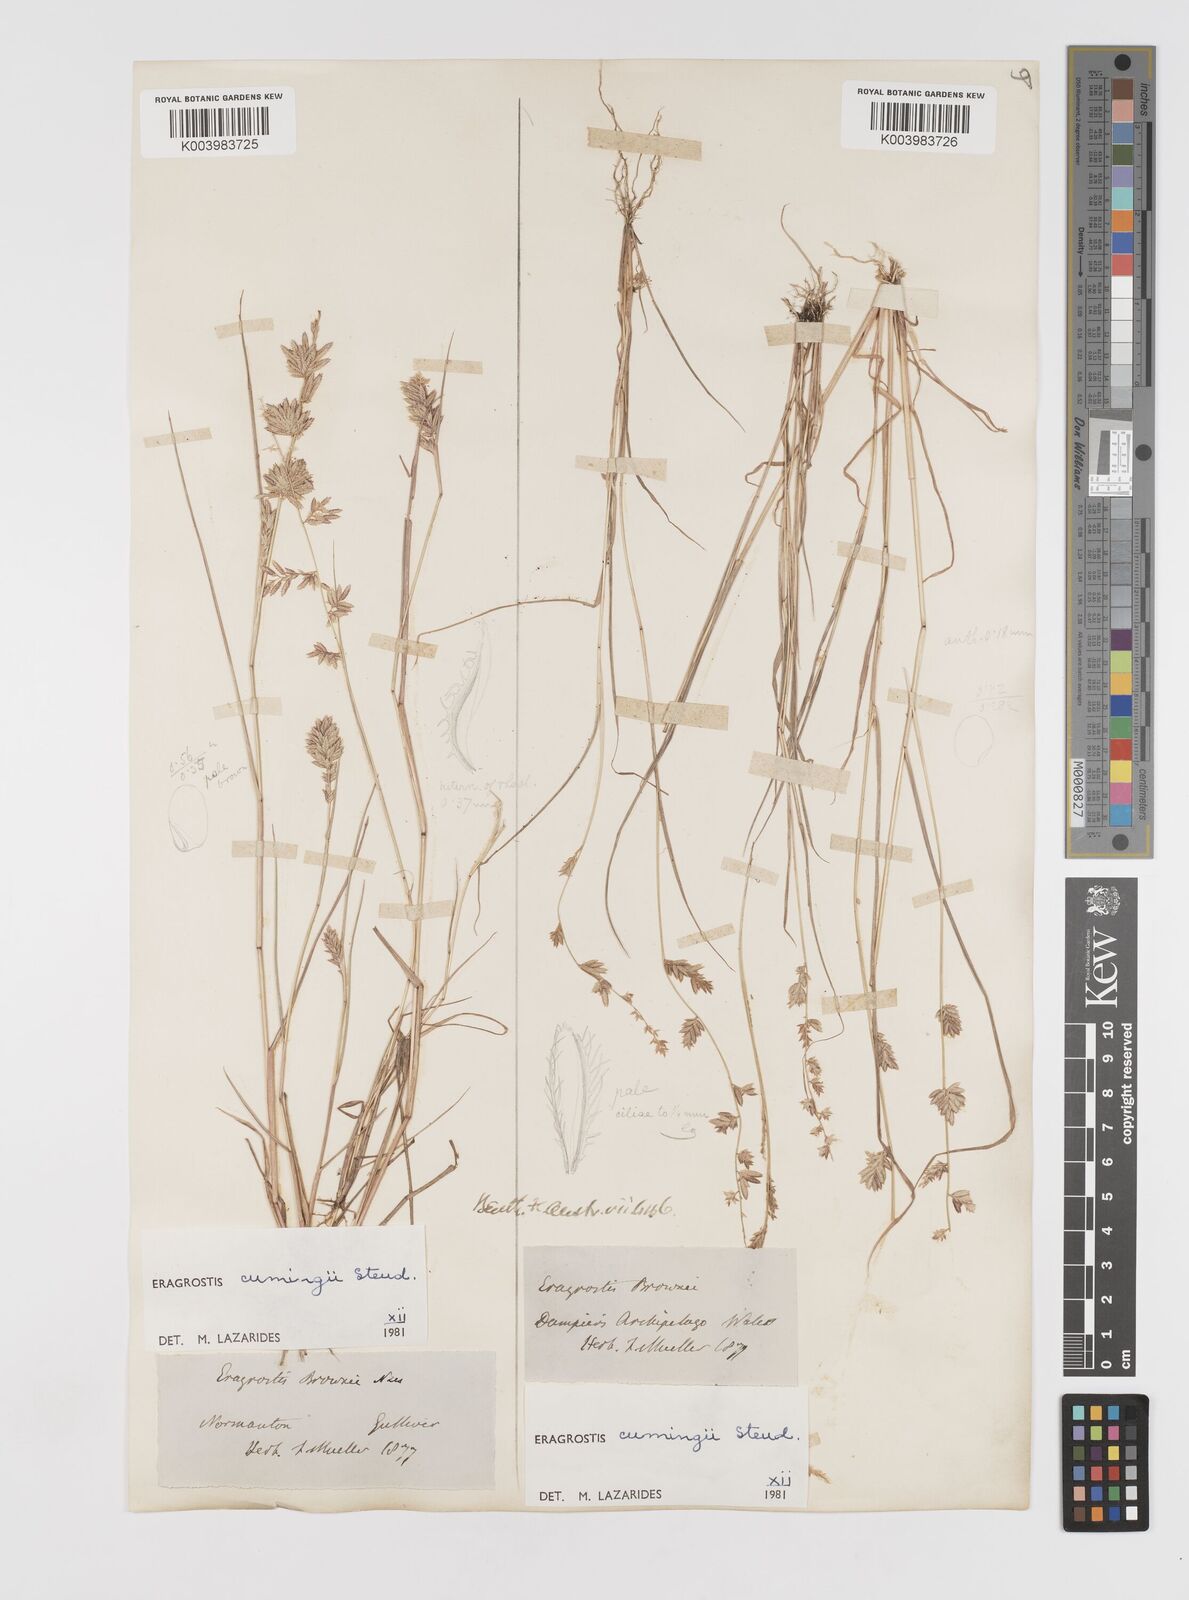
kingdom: Plantae
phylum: Tracheophyta
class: Liliopsida
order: Poales
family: Poaceae
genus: Eragrostis
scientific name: Eragrostis cumingii
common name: Cuming's lovegrass
